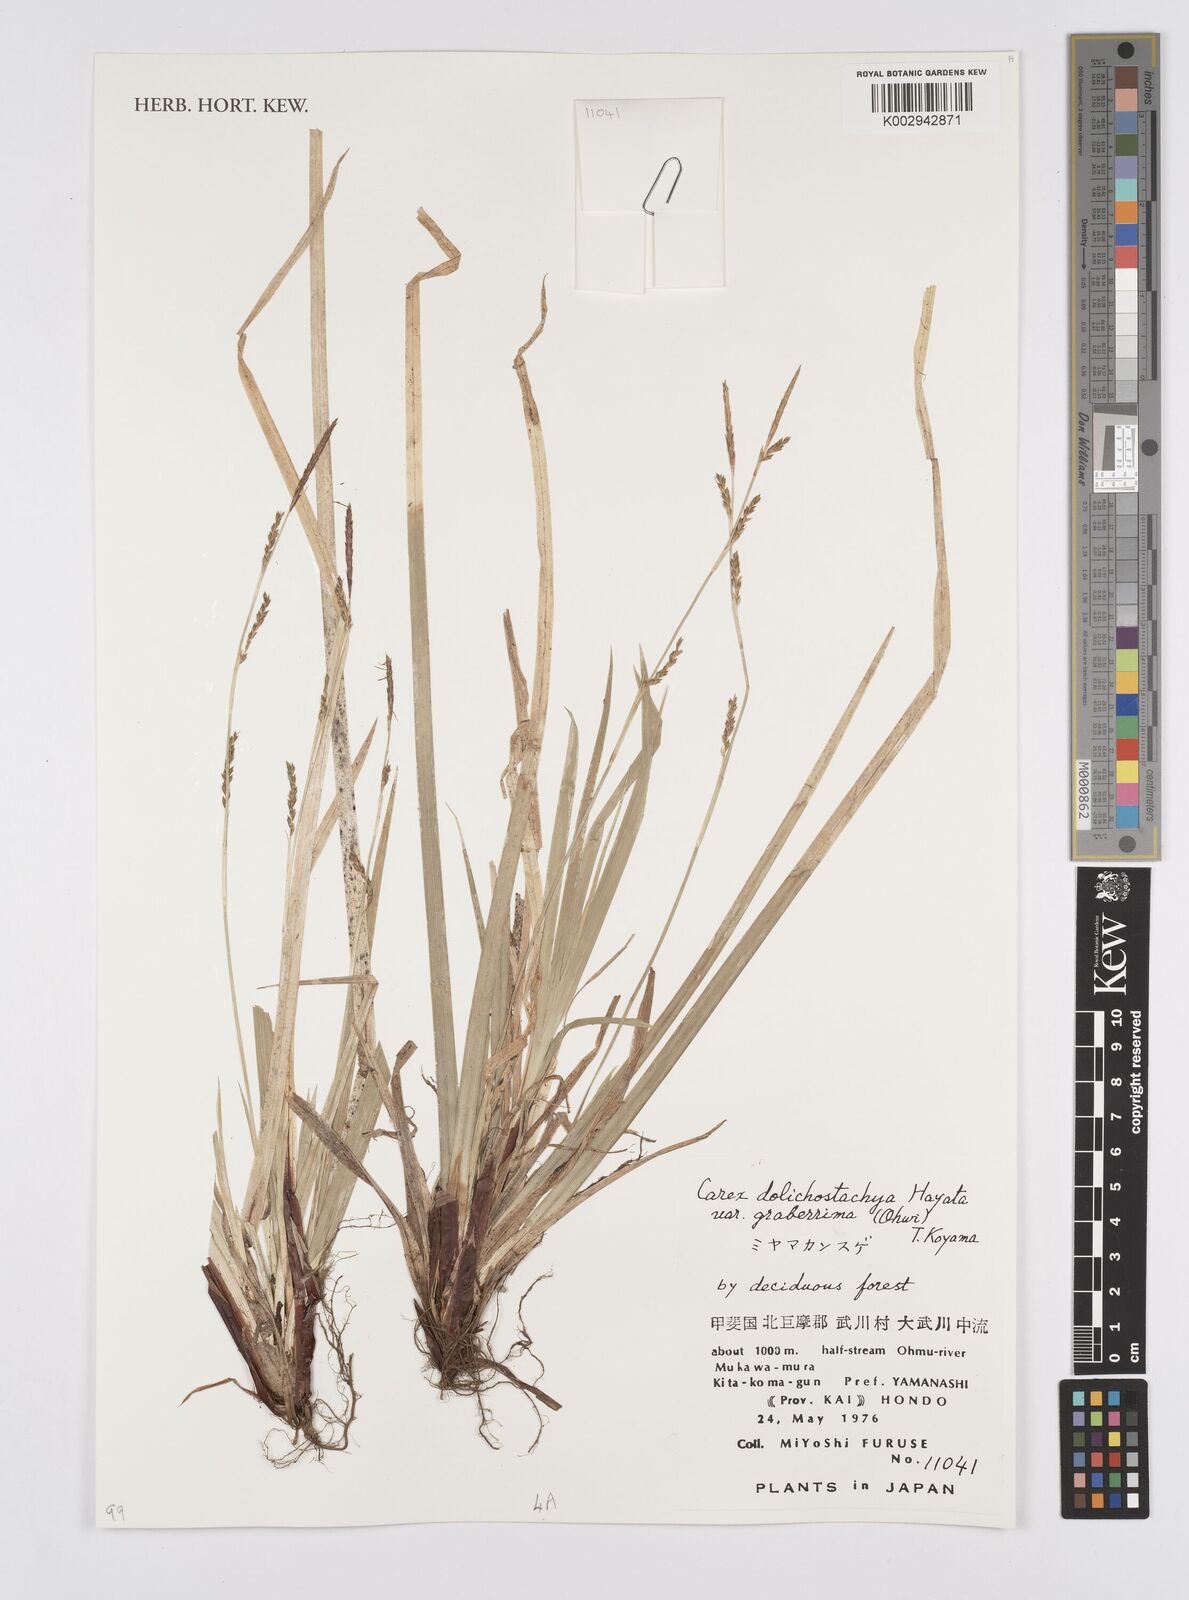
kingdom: Plantae
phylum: Tracheophyta
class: Liliopsida
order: Poales
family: Cyperaceae
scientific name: Cyperaceae
